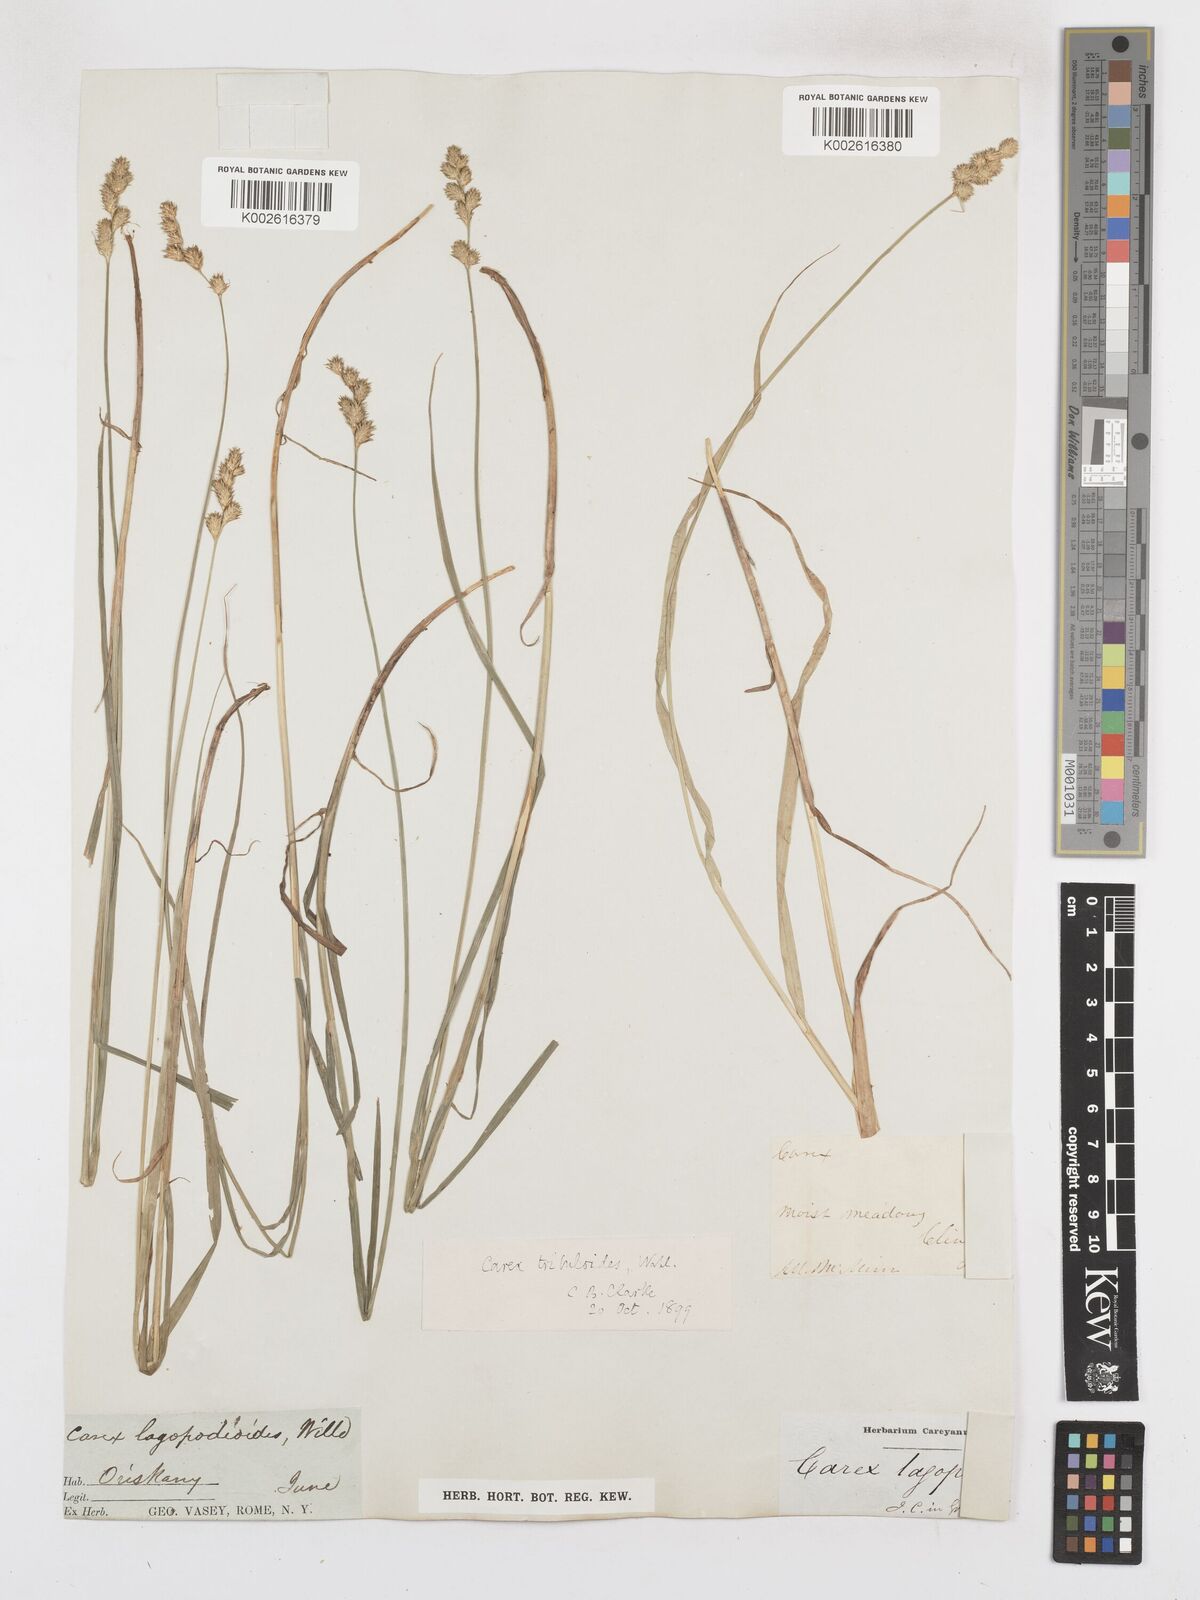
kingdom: Plantae
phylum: Tracheophyta
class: Liliopsida
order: Poales
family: Cyperaceae
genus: Carex
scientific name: Carex tribuloides
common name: Blunt broom sedge
